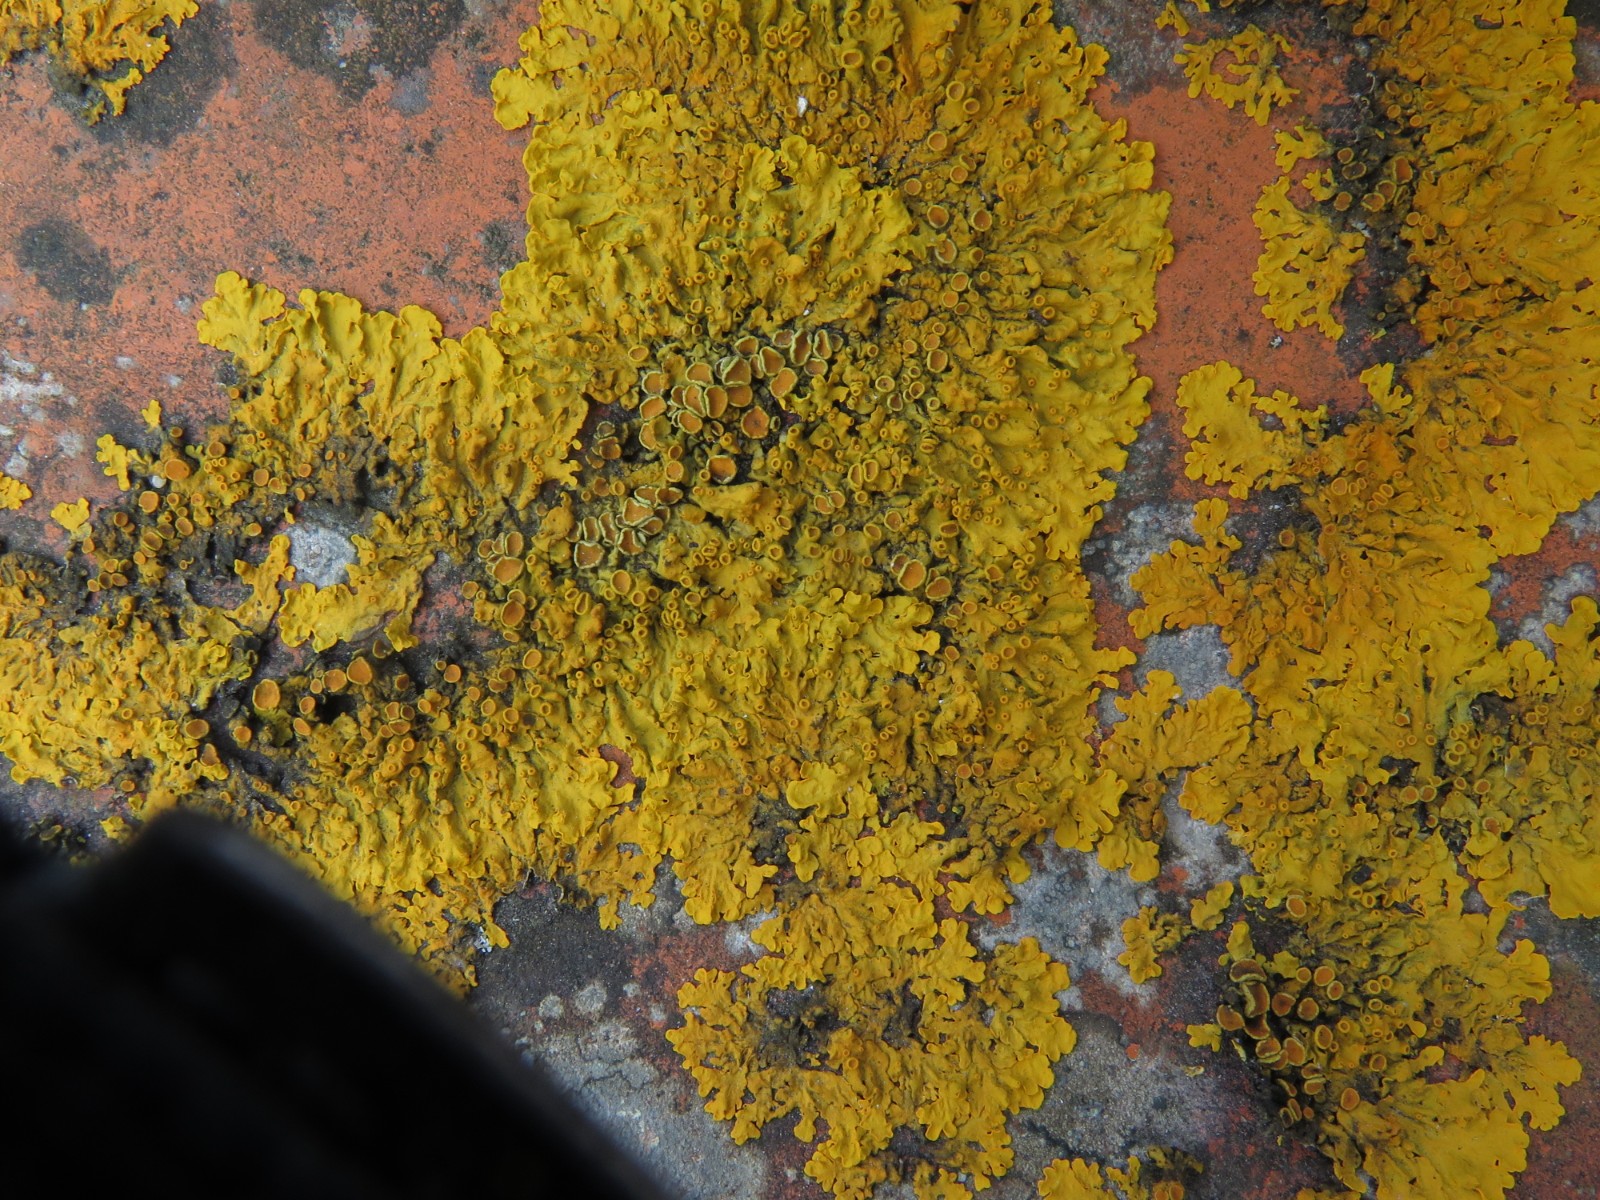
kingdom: Fungi
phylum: Ascomycota
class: Lecanoromycetes
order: Teloschistales
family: Teloschistaceae
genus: Xanthoria
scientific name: Xanthoria parietina
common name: almindelig væggelav
